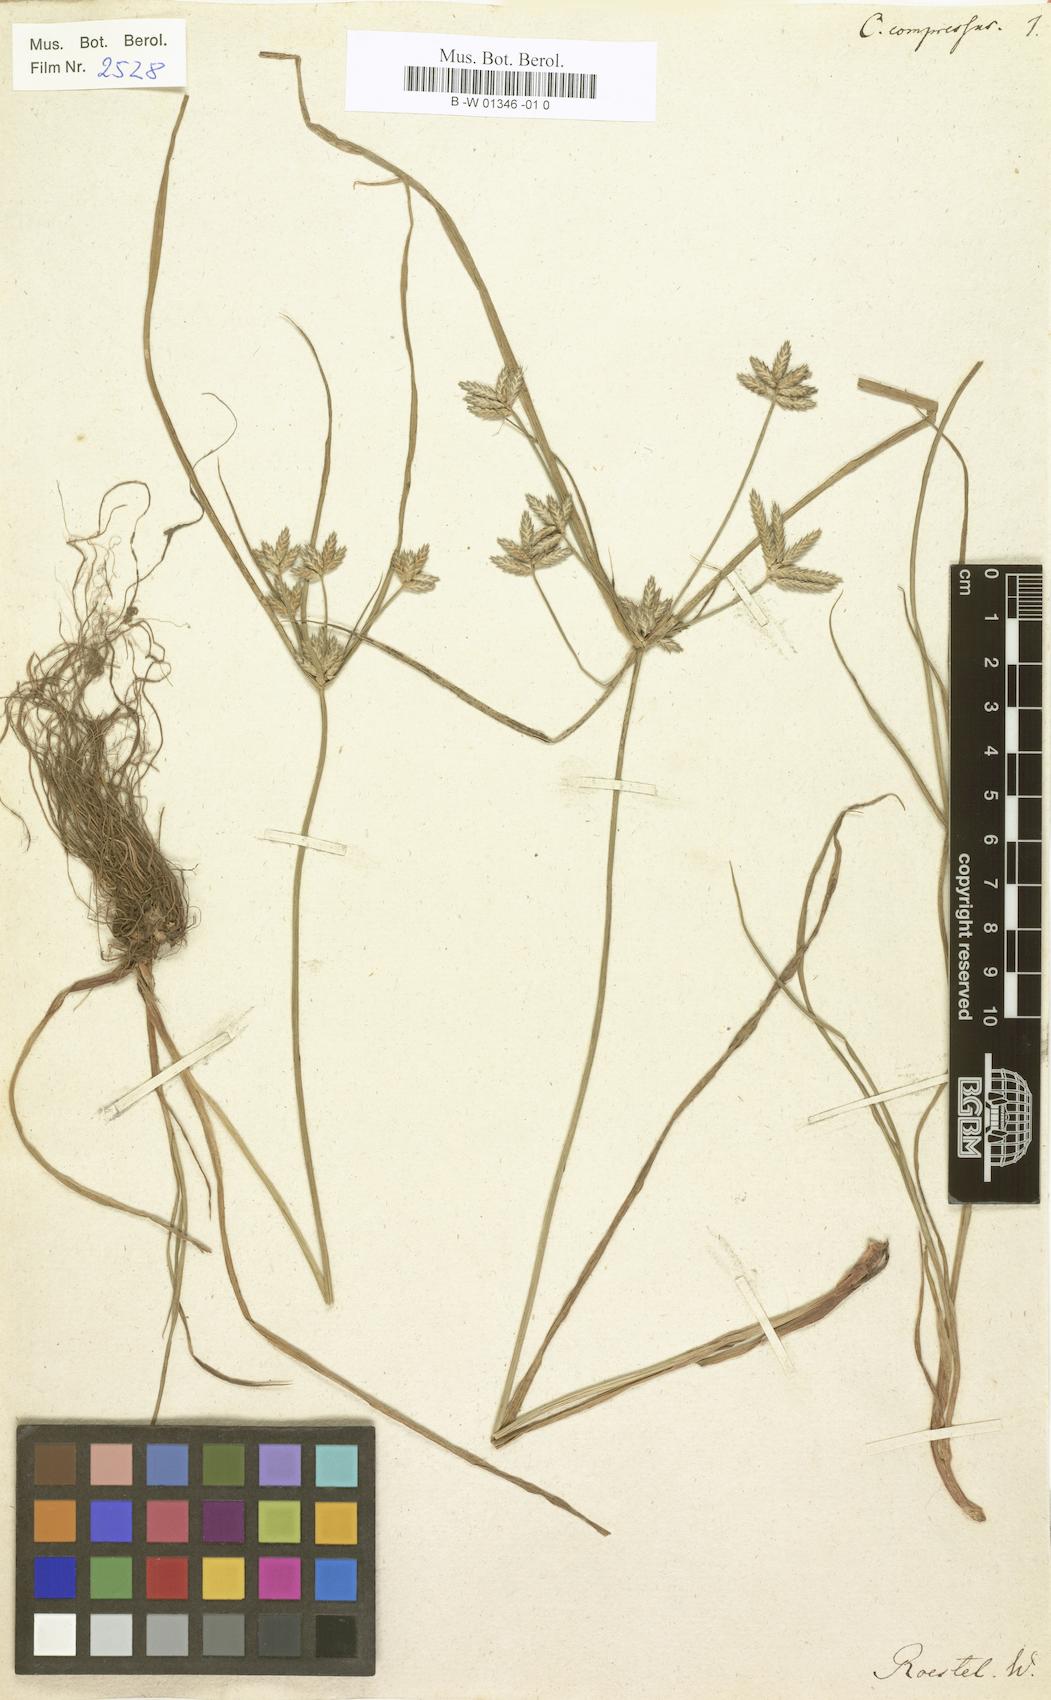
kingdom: Plantae
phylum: Tracheophyta
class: Liliopsida
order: Poales
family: Cyperaceae
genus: Cyperus
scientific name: Cyperus compressus
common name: Poorland flatsedge
